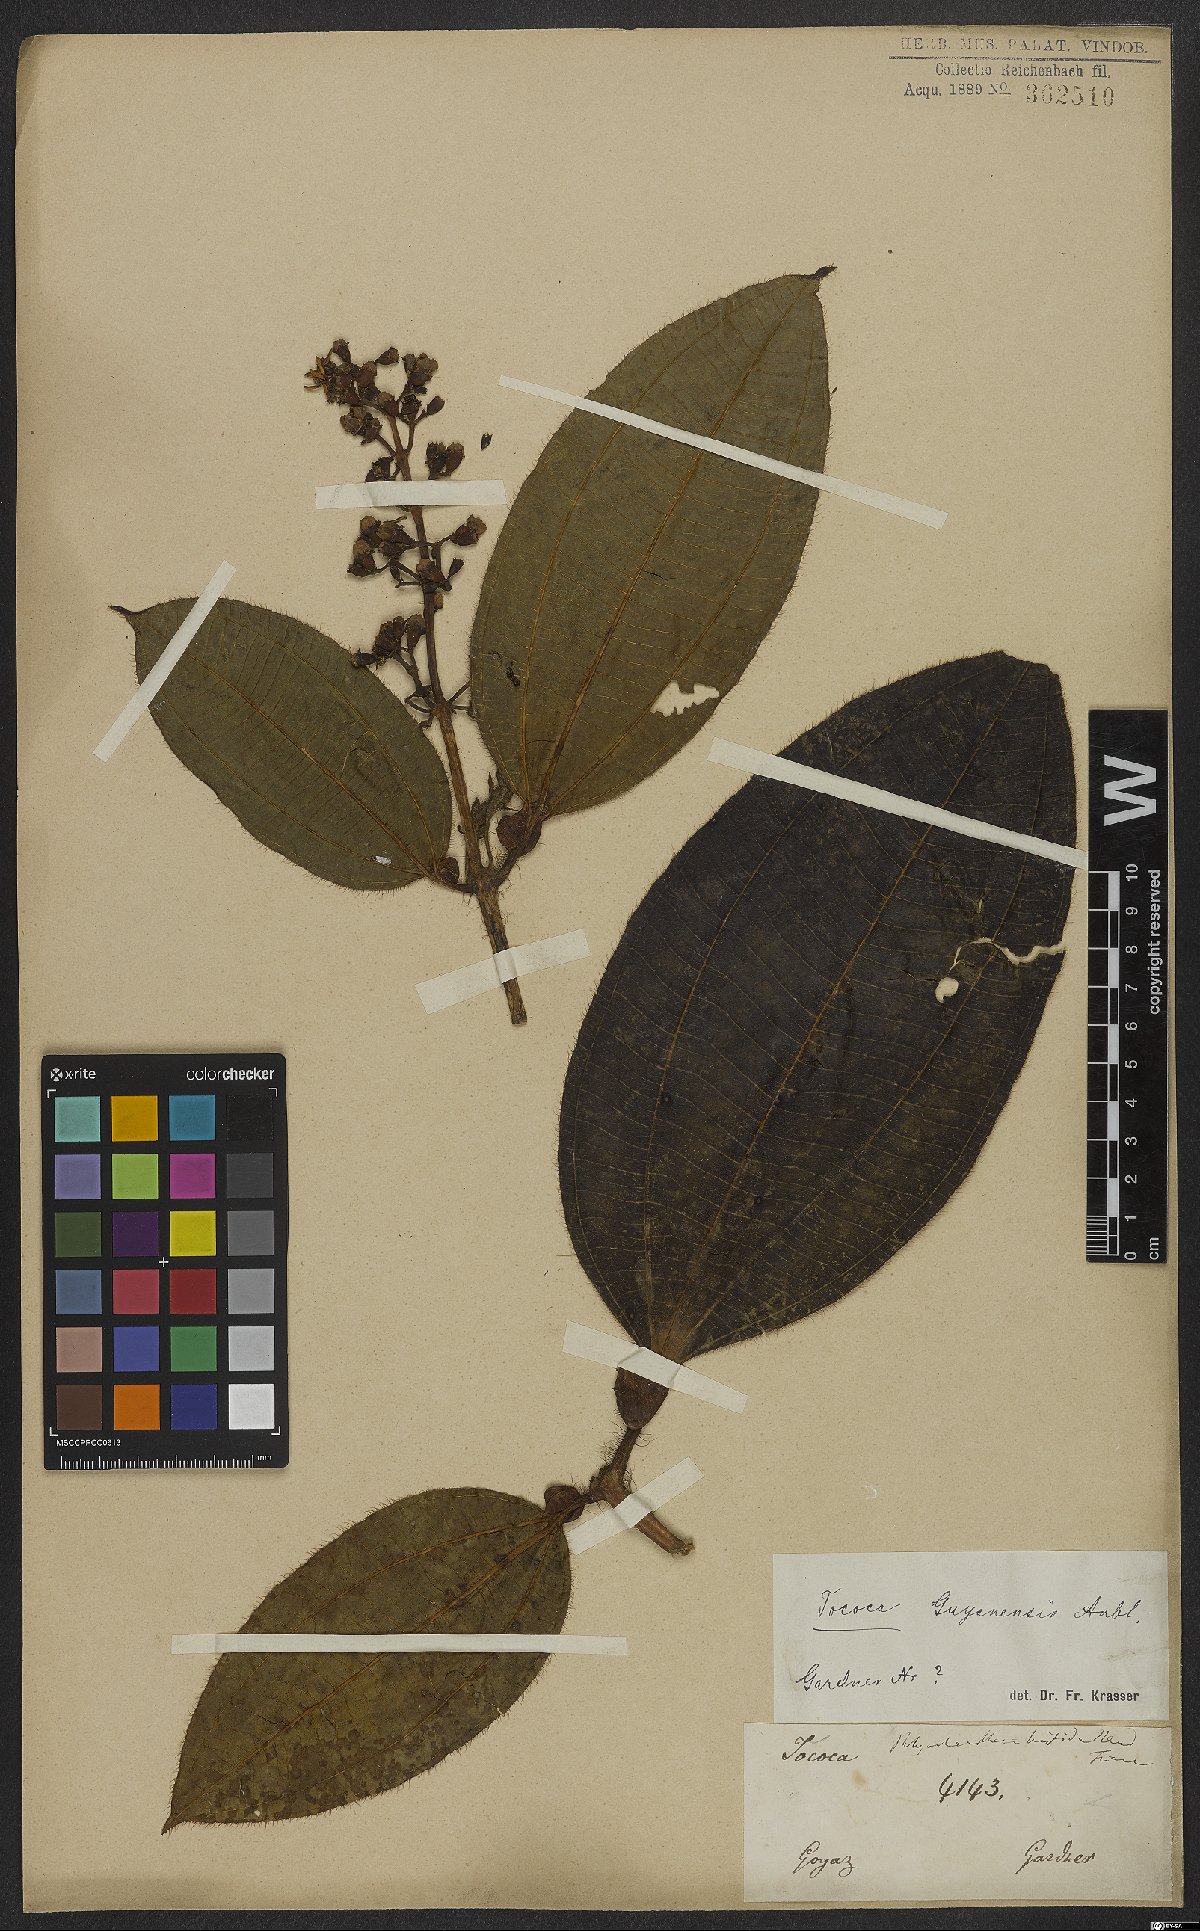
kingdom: Plantae
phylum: Tracheophyta
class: Magnoliopsida
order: Myrtales
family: Melastomataceae
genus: Miconia
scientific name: Miconia tococa
